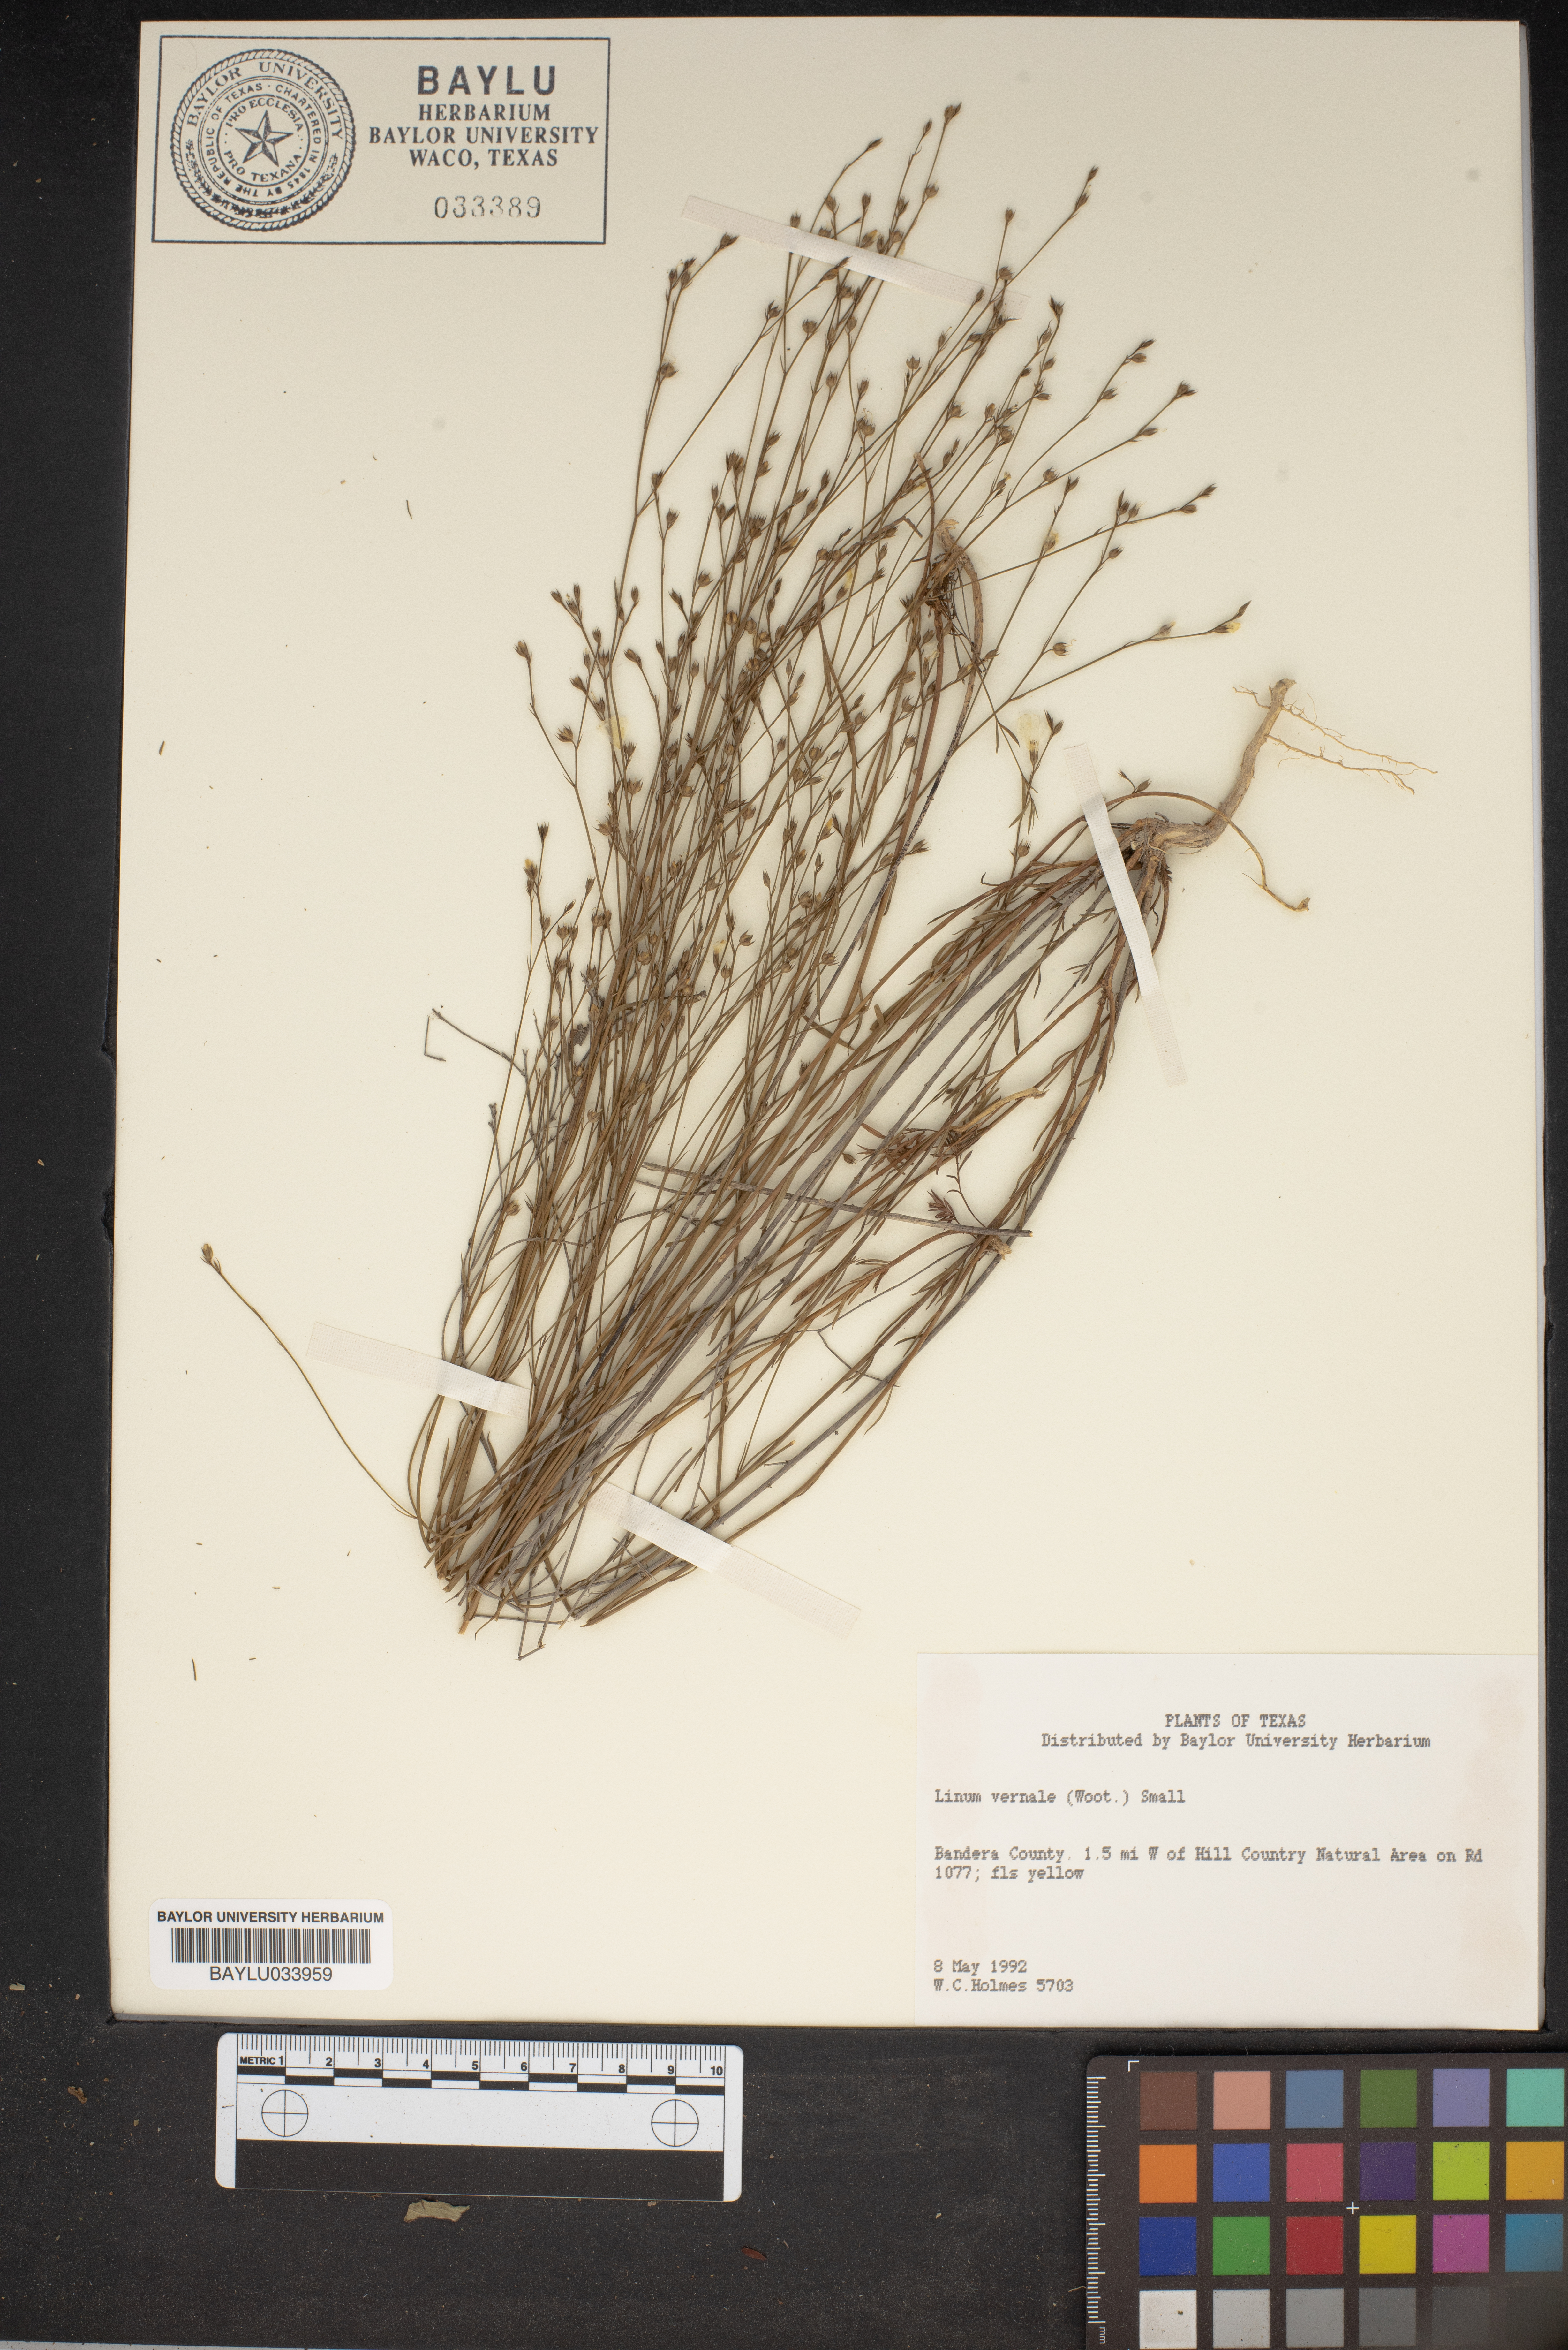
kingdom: Plantae
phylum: Tracheophyta
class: Magnoliopsida
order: Malpighiales
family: Linaceae
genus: Linum
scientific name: Linum vernale
